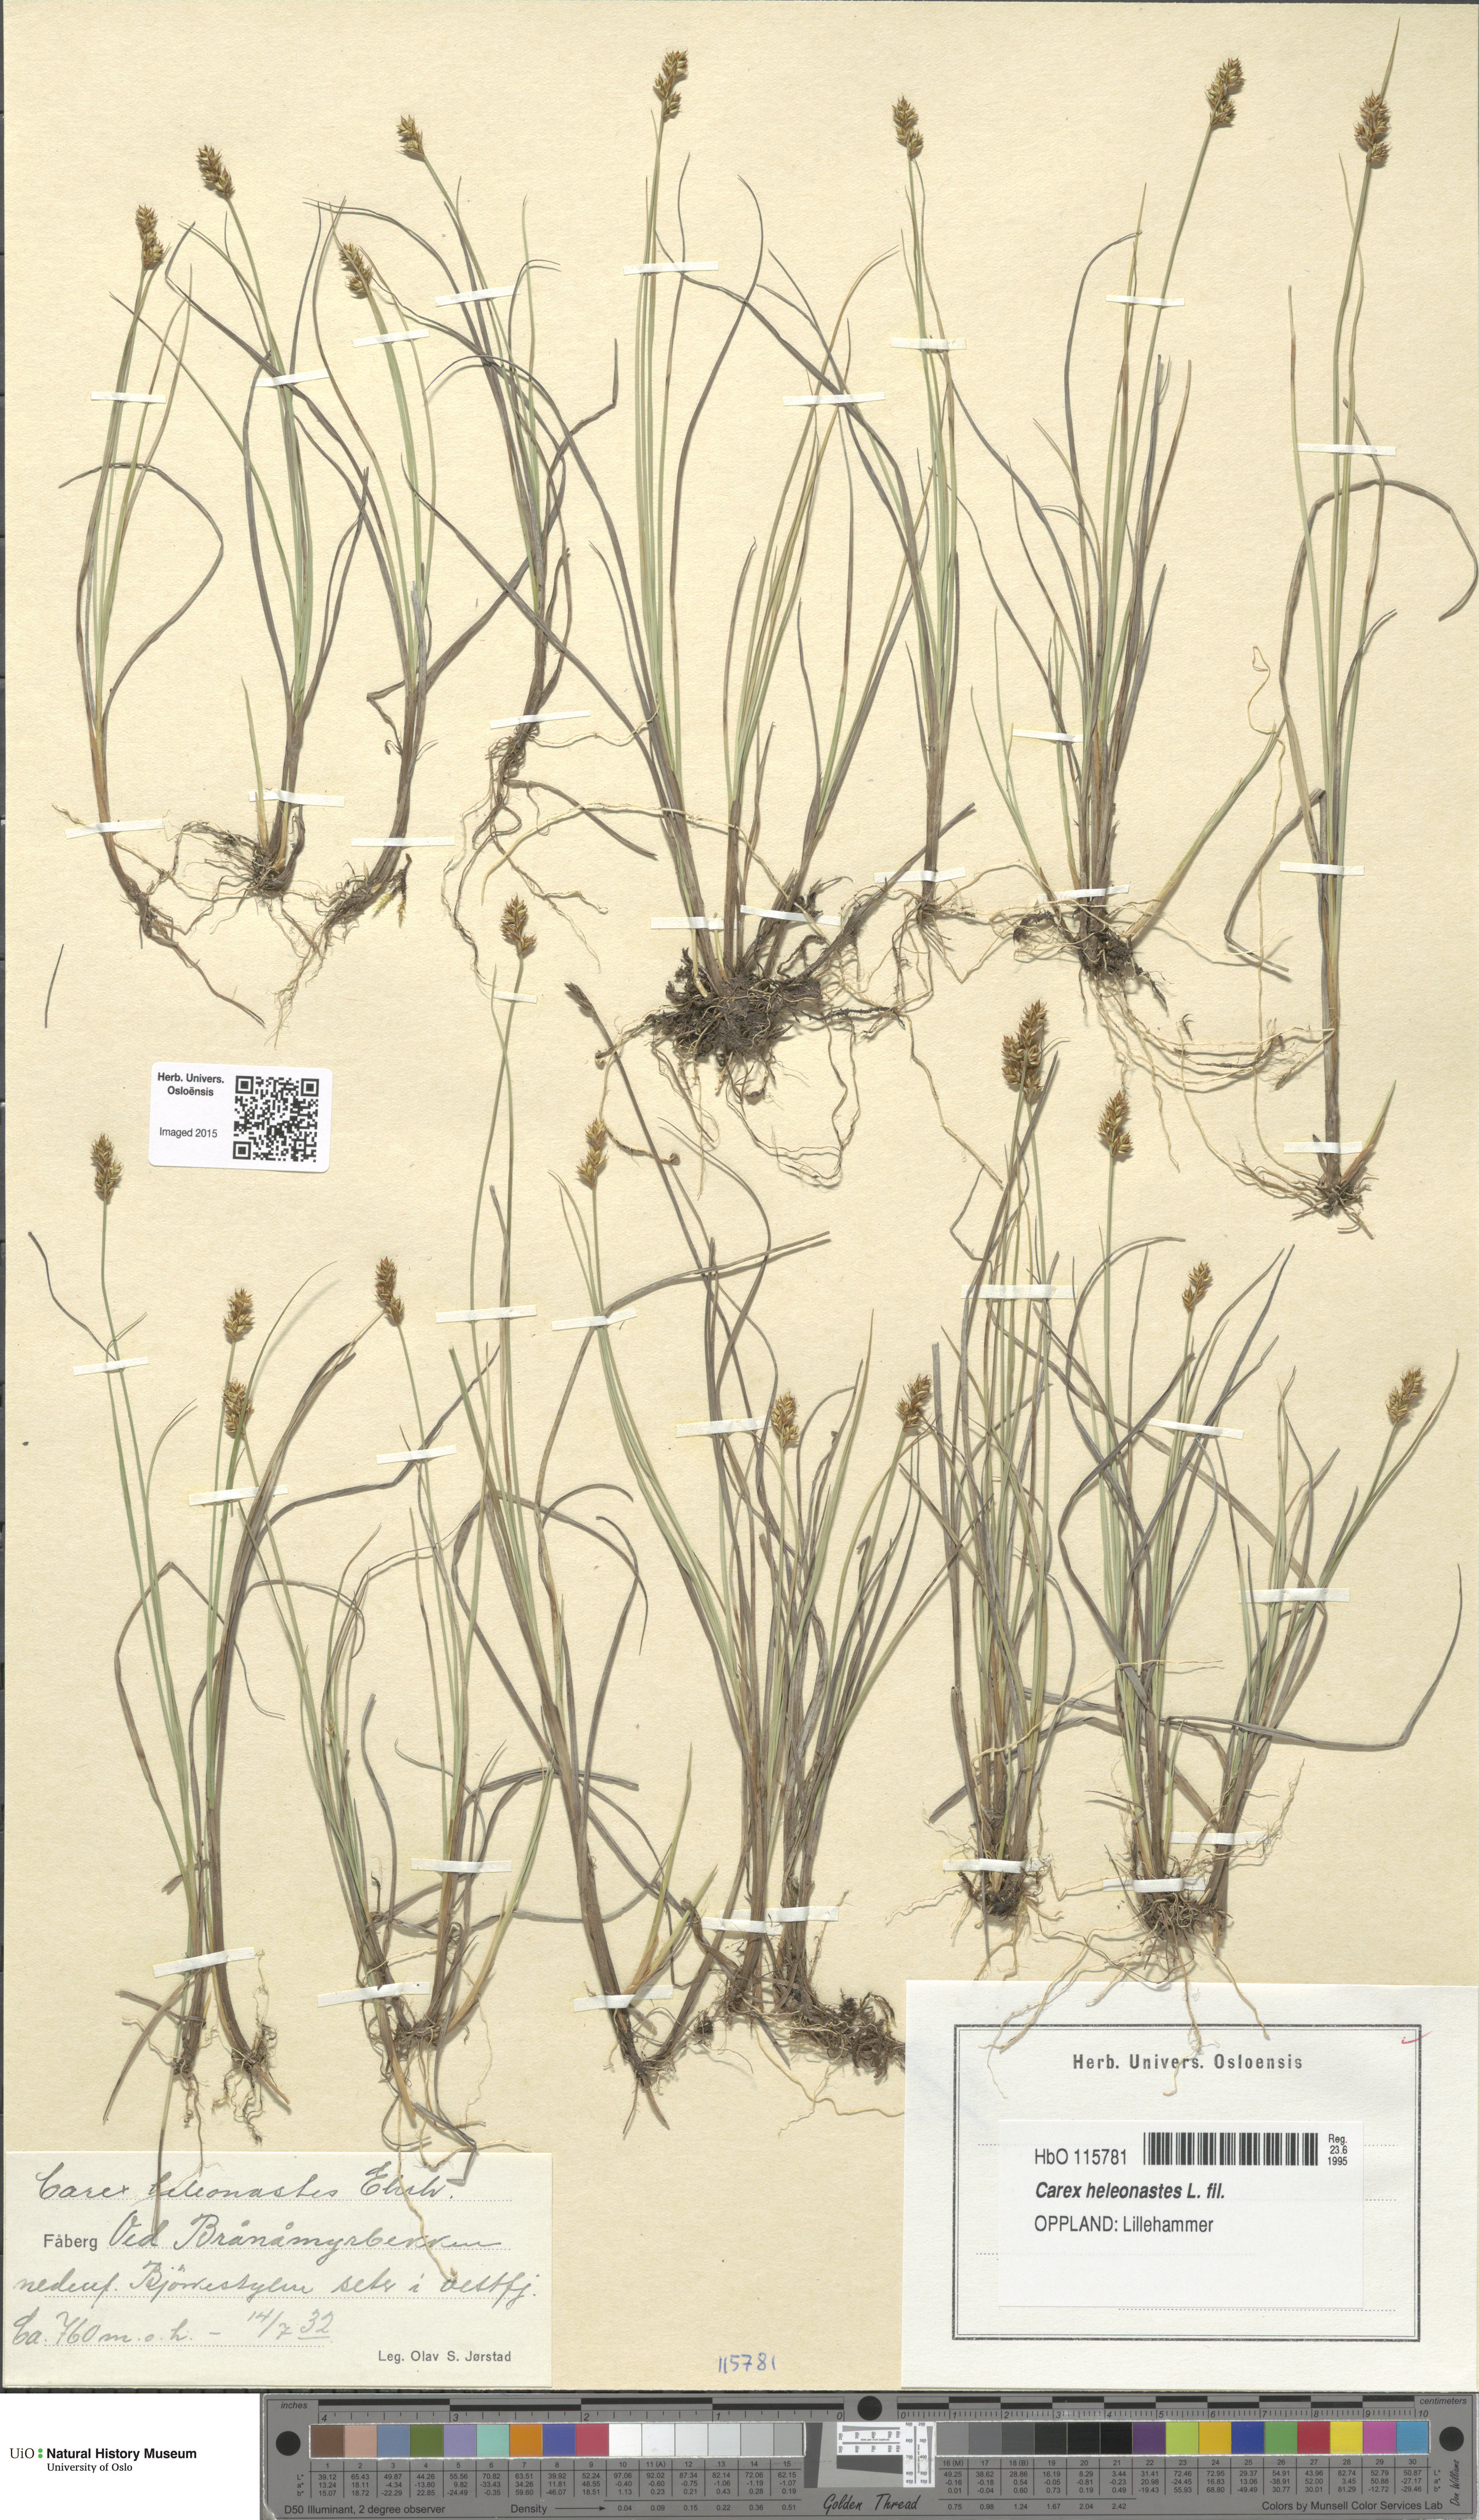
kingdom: Plantae
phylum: Tracheophyta
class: Liliopsida
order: Poales
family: Cyperaceae
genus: Carex
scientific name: Carex heleonastes
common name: Hudson bay sedge
